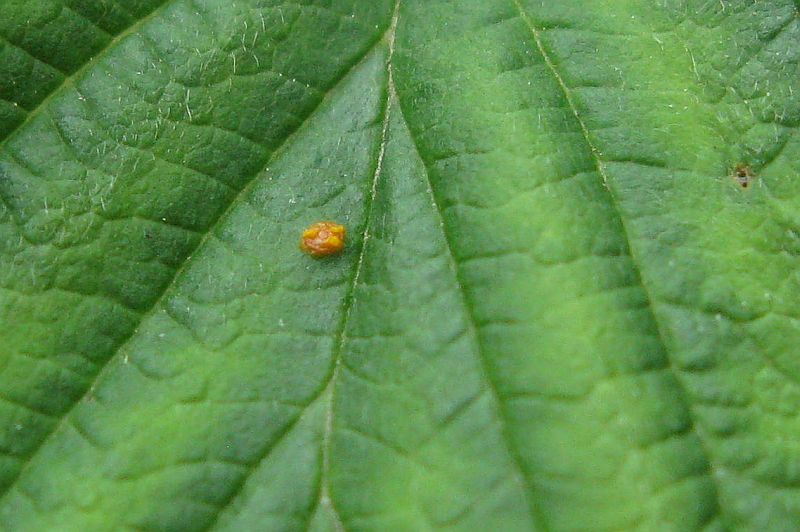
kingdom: Fungi
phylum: Basidiomycota
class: Pucciniomycetes
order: Pucciniales
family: Phragmidiaceae
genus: Phragmidium
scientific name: Phragmidium rubi-idaei
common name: hindbær-flercellerust
